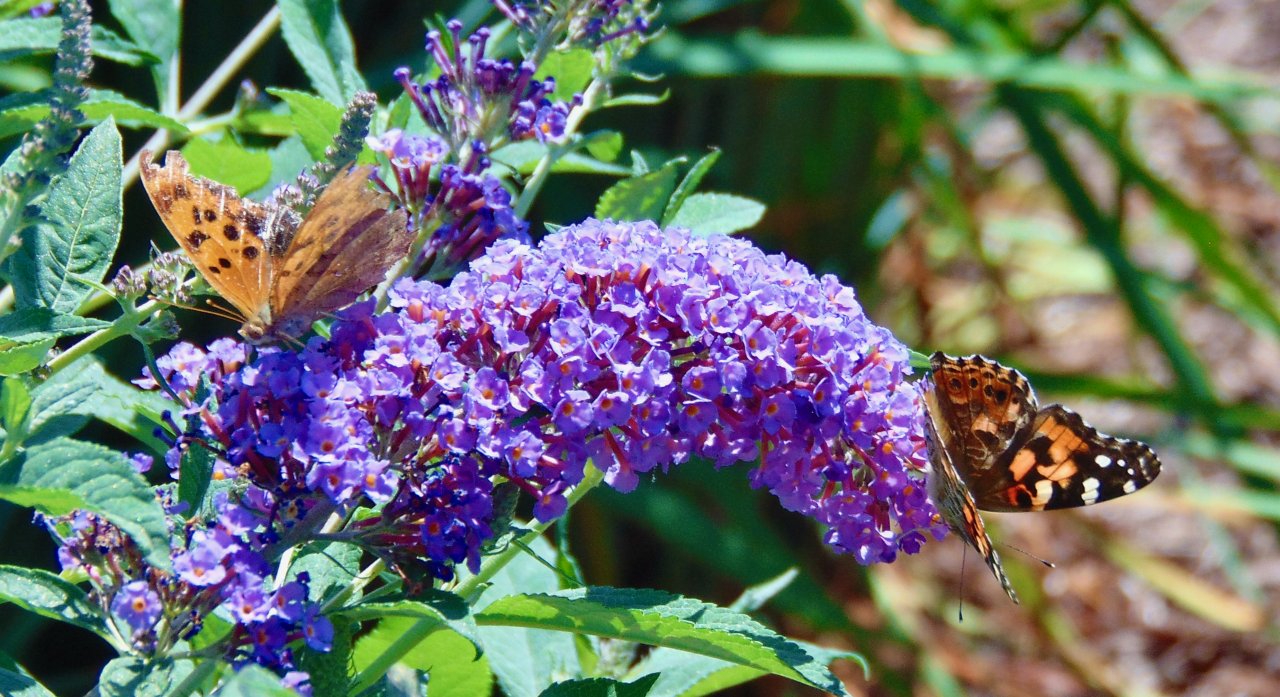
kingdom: Animalia
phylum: Arthropoda
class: Insecta
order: Lepidoptera
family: Nymphalidae
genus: Polygonia
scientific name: Polygonia interrogationis
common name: Question Mark
